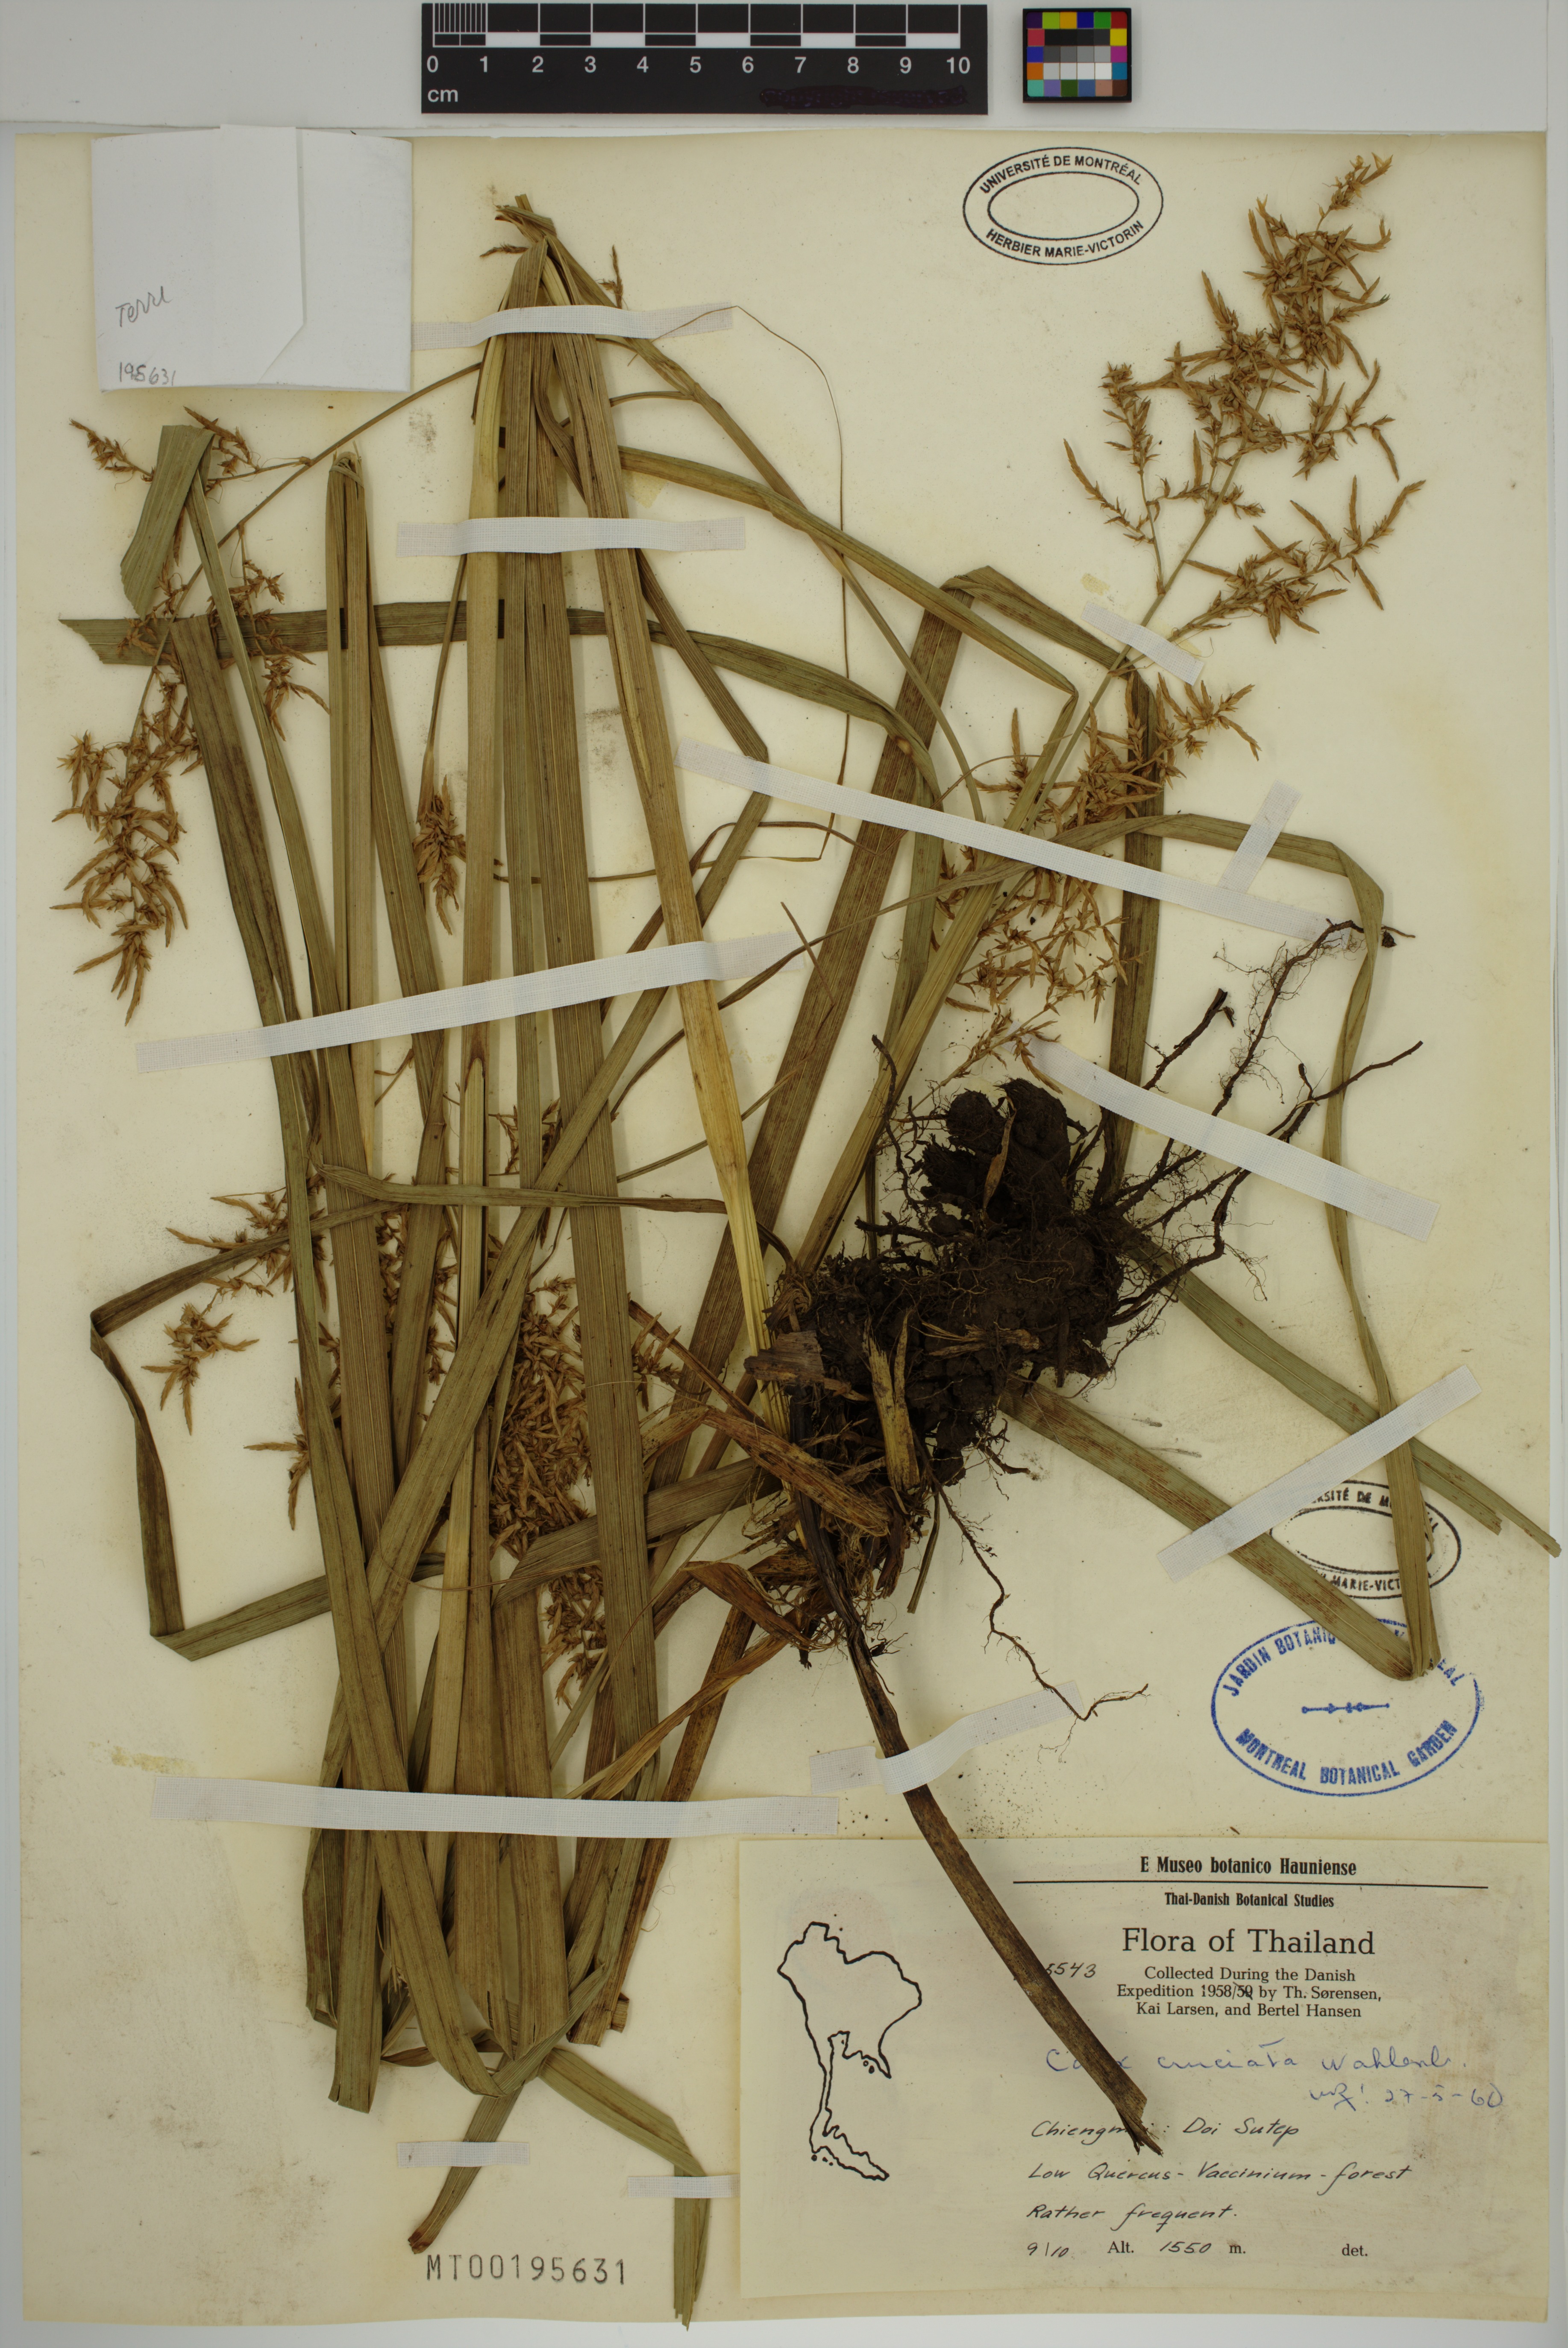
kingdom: Plantae
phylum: Tracheophyta
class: Liliopsida
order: Poales
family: Cyperaceae
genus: Carex
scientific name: Carex cruciata
